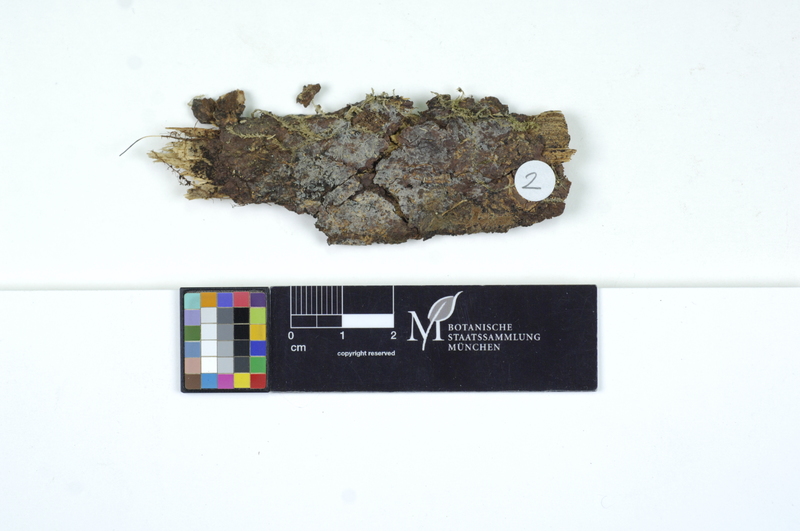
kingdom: Plantae
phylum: Tracheophyta
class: Pinopsida
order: Pinales
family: Pinaceae
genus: Pinus
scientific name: Pinus mugo
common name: Mugo pine
